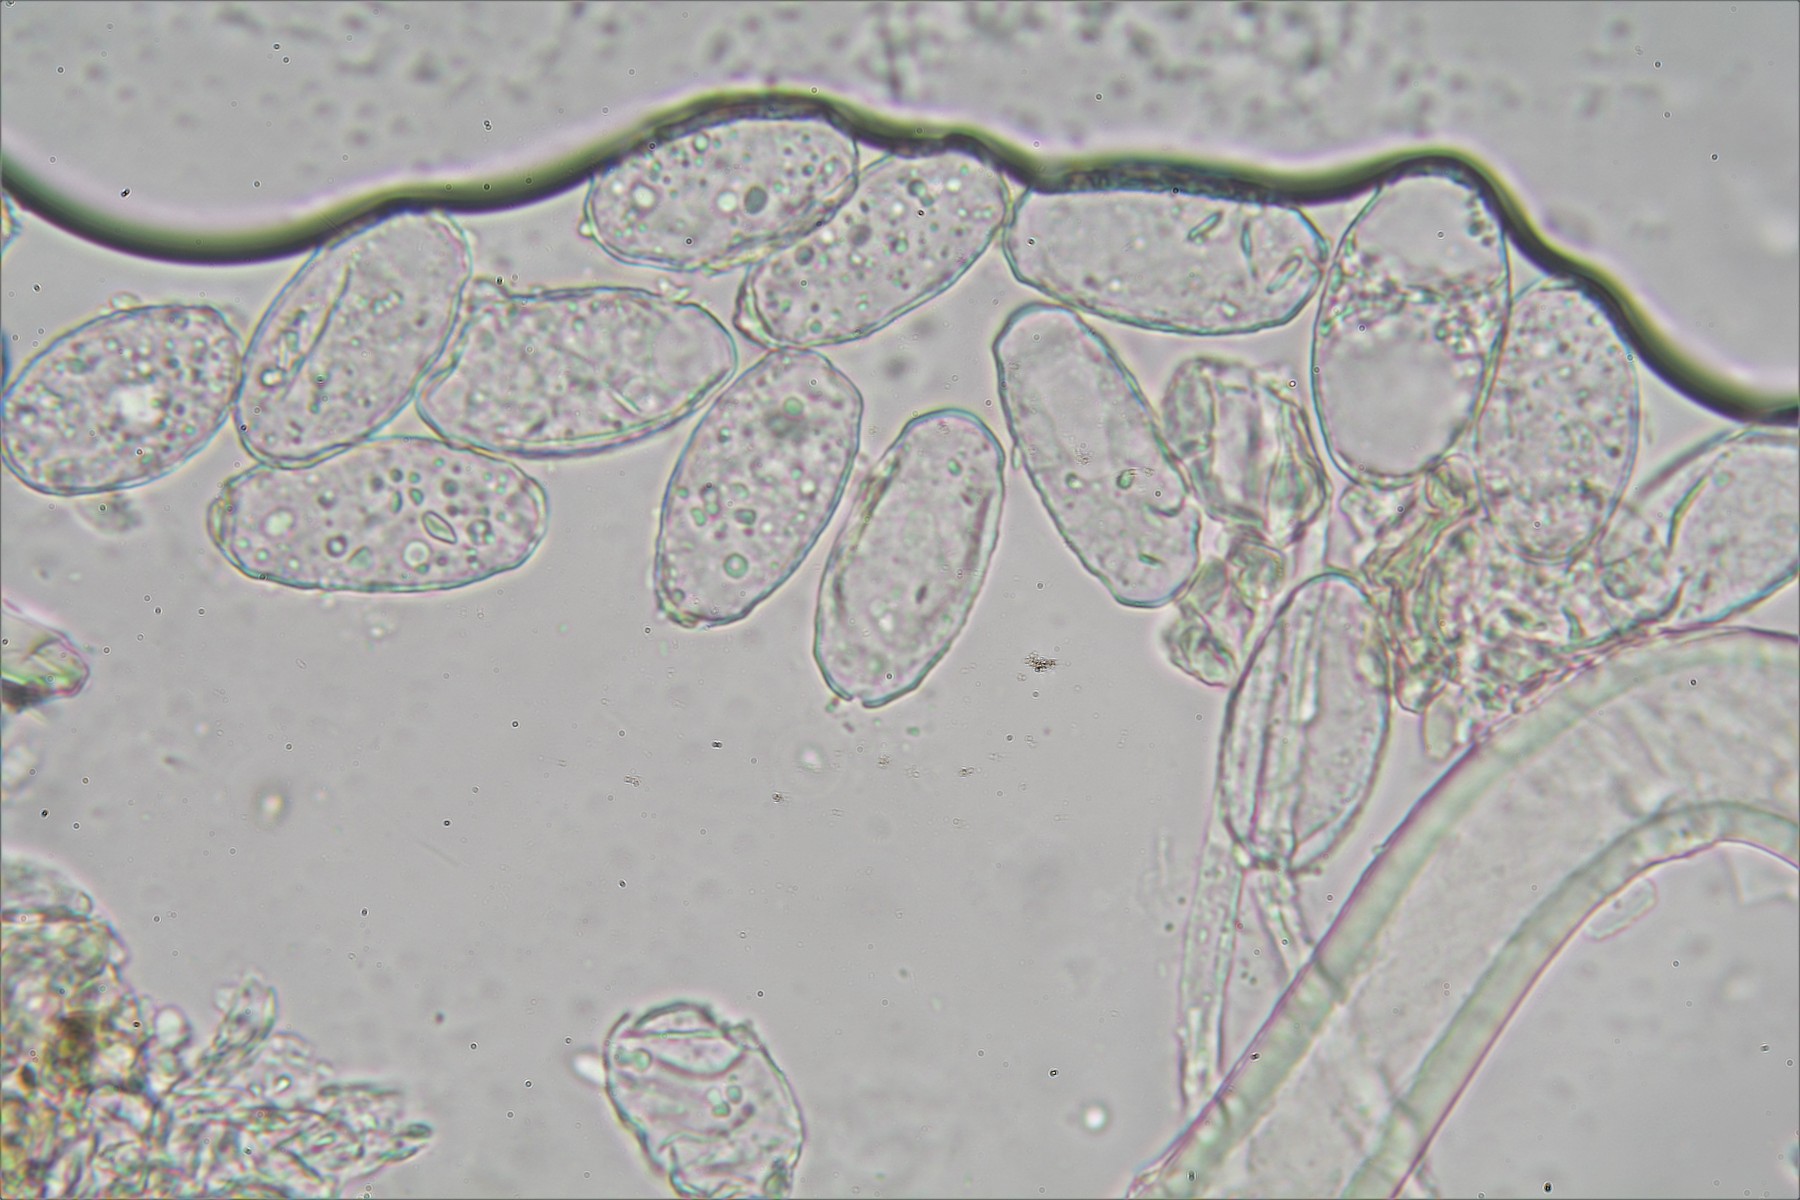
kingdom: Fungi
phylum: Ascomycota
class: Leotiomycetes
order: Helotiales
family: Erysiphaceae
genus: Podosphaera
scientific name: Podosphaera aphanis
